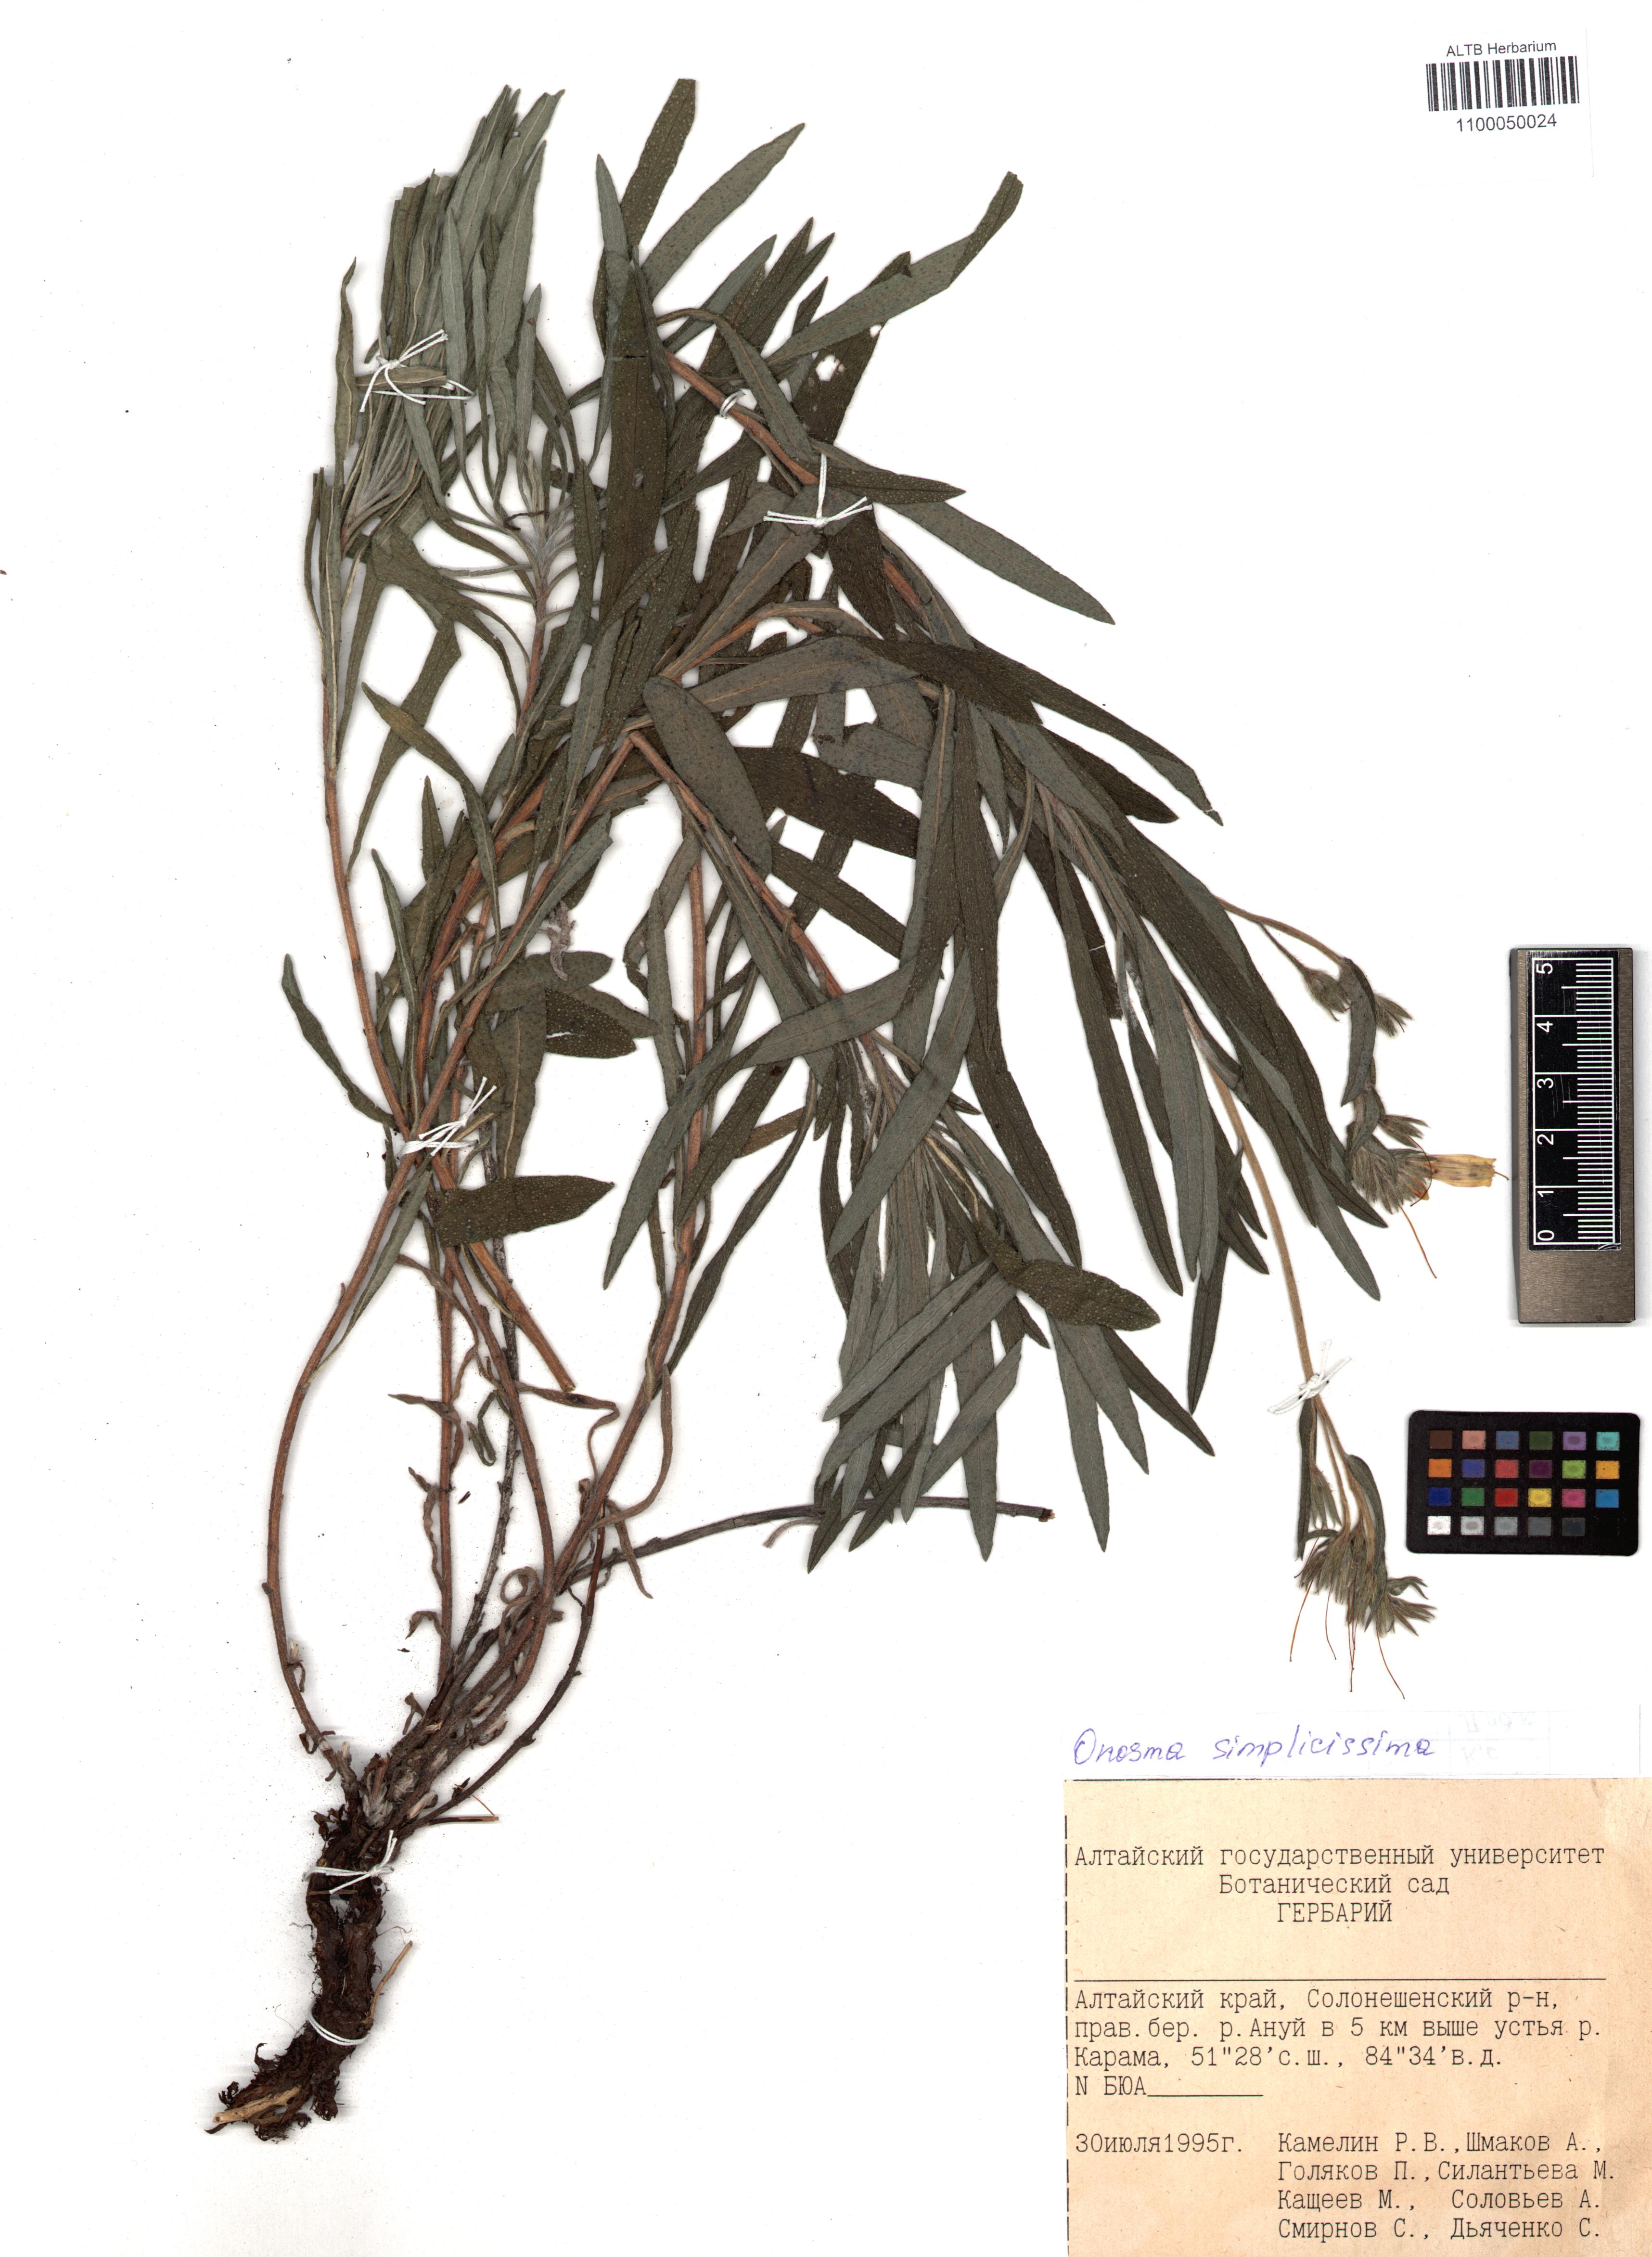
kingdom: Plantae
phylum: Tracheophyta
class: Magnoliopsida
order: Boraginales
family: Boraginaceae
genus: Onosma
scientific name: Onosma simplicissima
